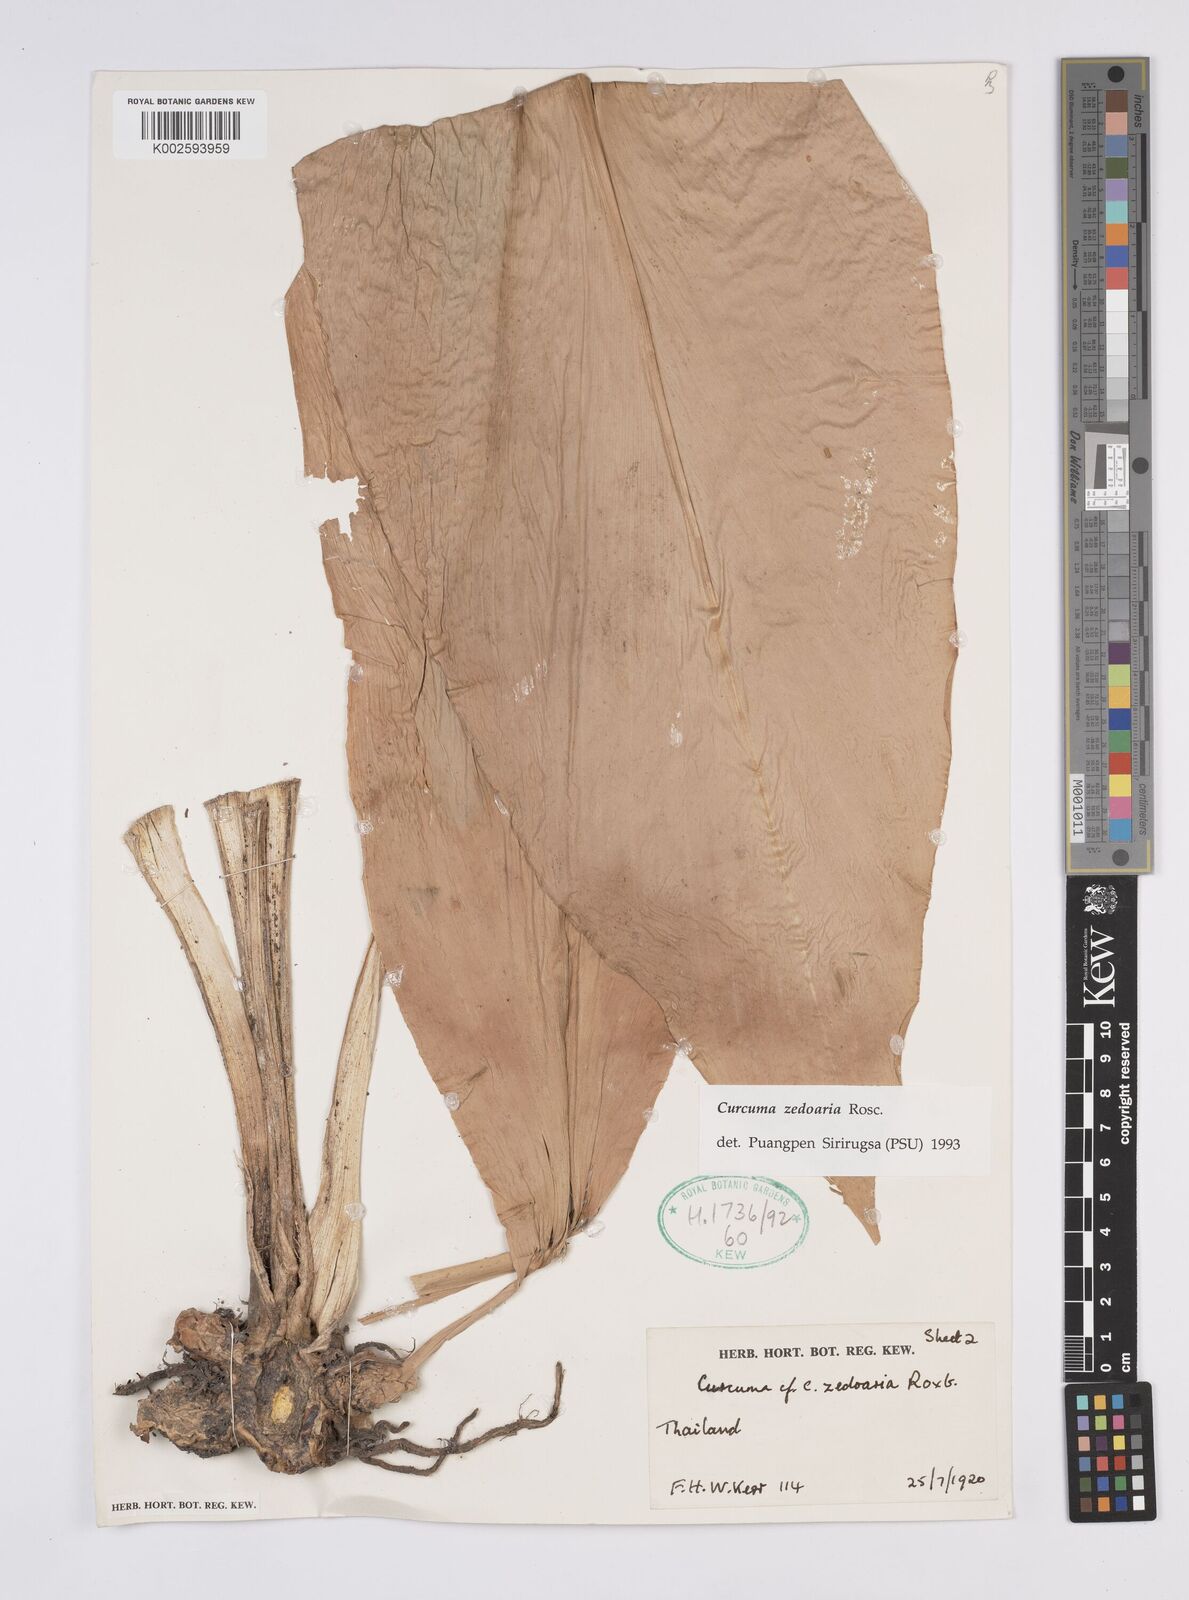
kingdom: Plantae
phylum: Tracheophyta
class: Liliopsida
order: Zingiberales
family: Zingiberaceae
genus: Curcuma
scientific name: Curcuma aromatica
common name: Wild turmeric
